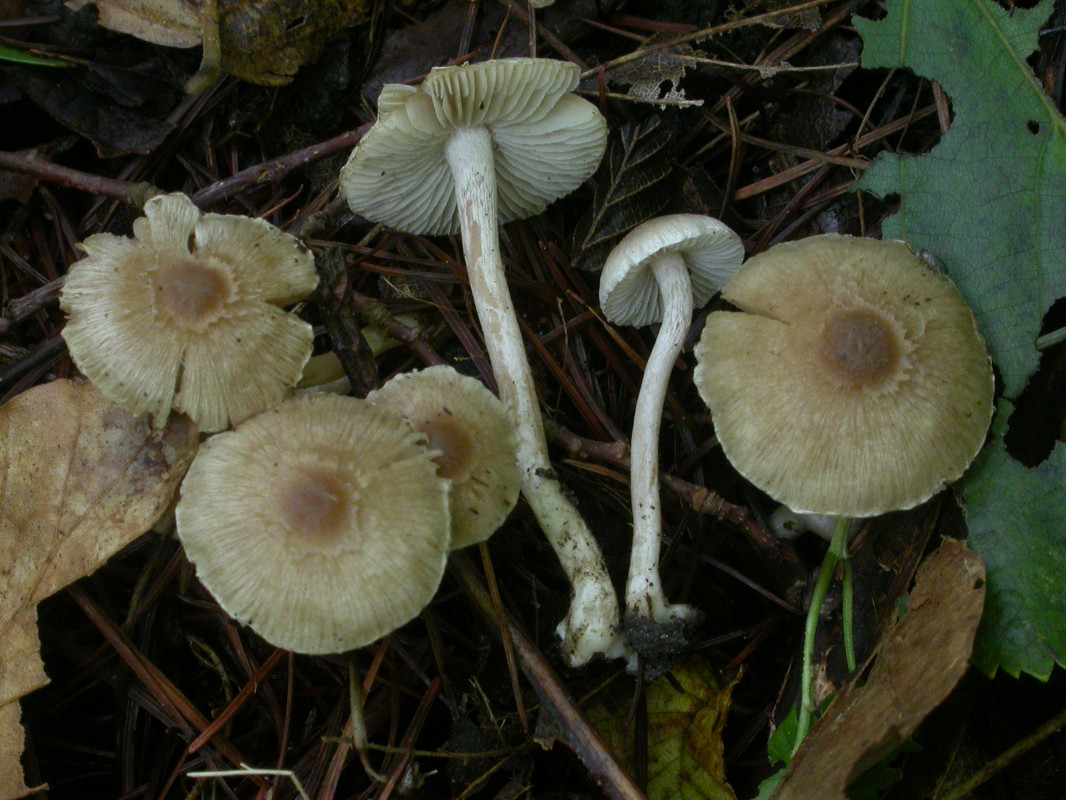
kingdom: Fungi
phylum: Basidiomycota
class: Agaricomycetes
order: Agaricales
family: Inocybaceae
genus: Inocybe
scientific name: Inocybe phaeodisca
